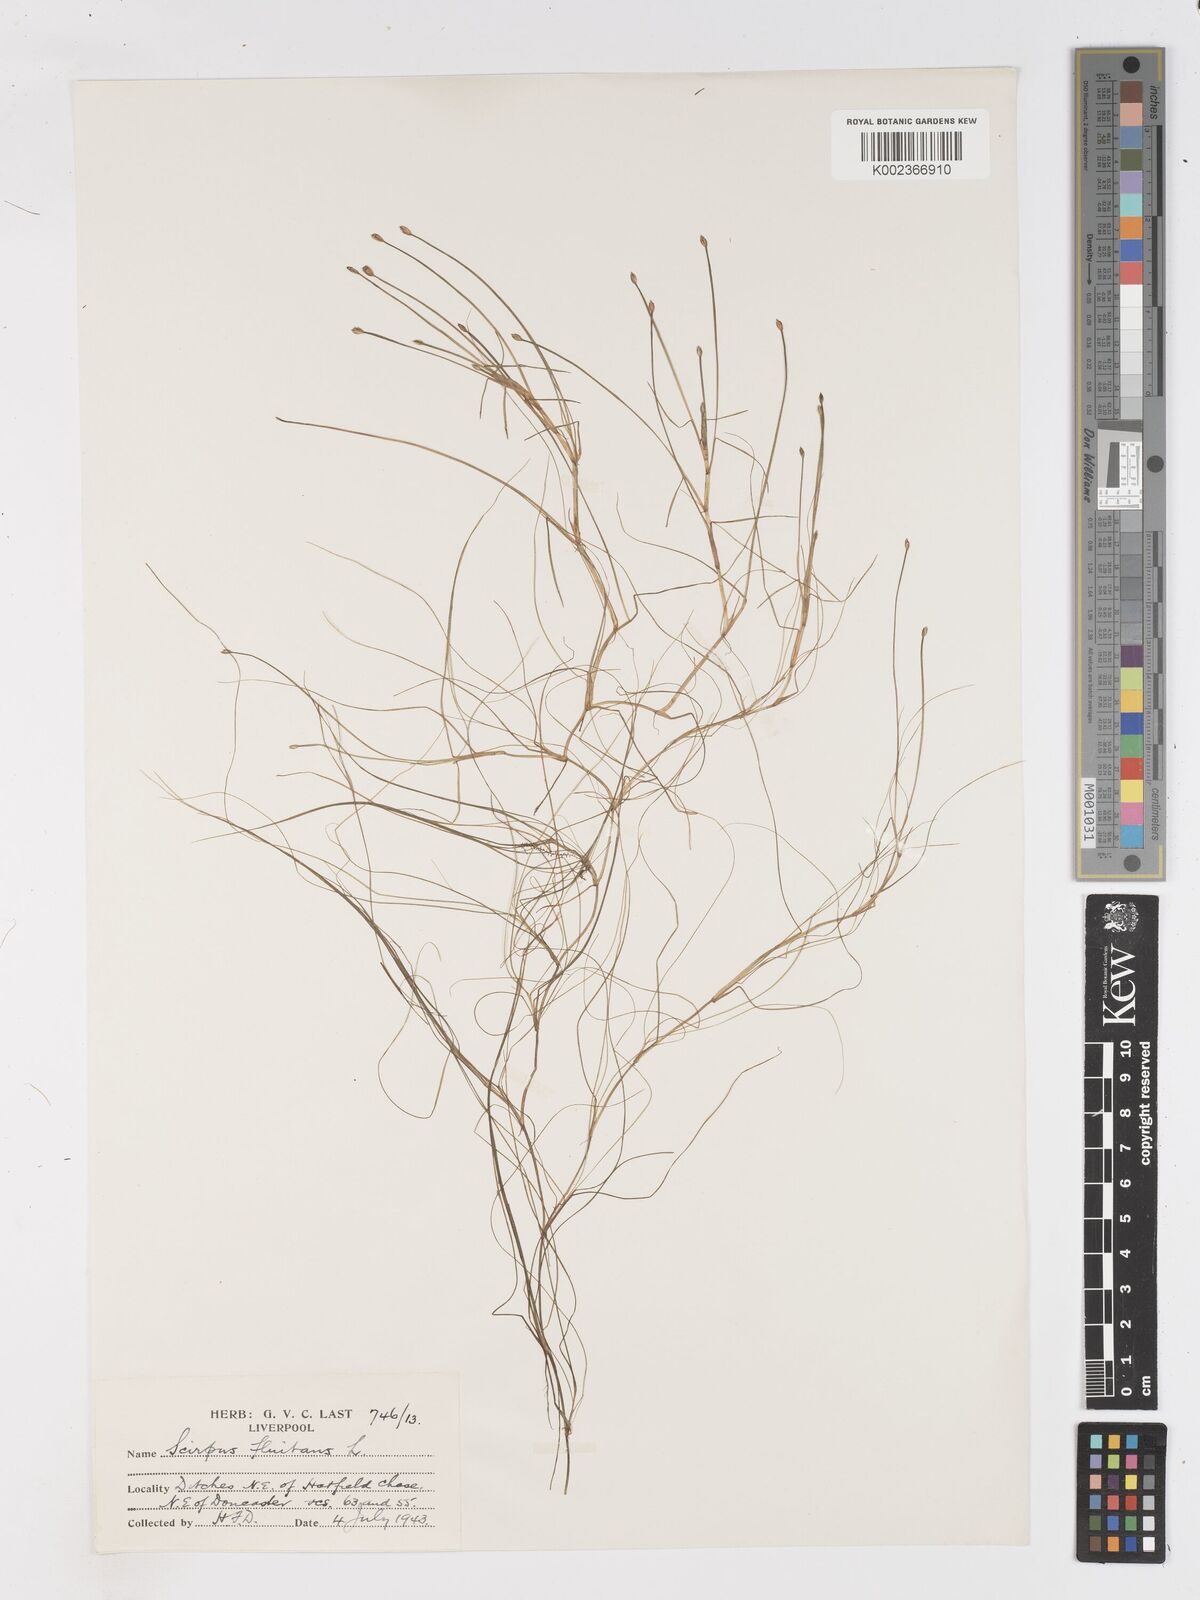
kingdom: Plantae
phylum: Tracheophyta
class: Liliopsida
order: Poales
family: Cyperaceae
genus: Isolepis
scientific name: Isolepis fluitans
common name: Floating club-rush
